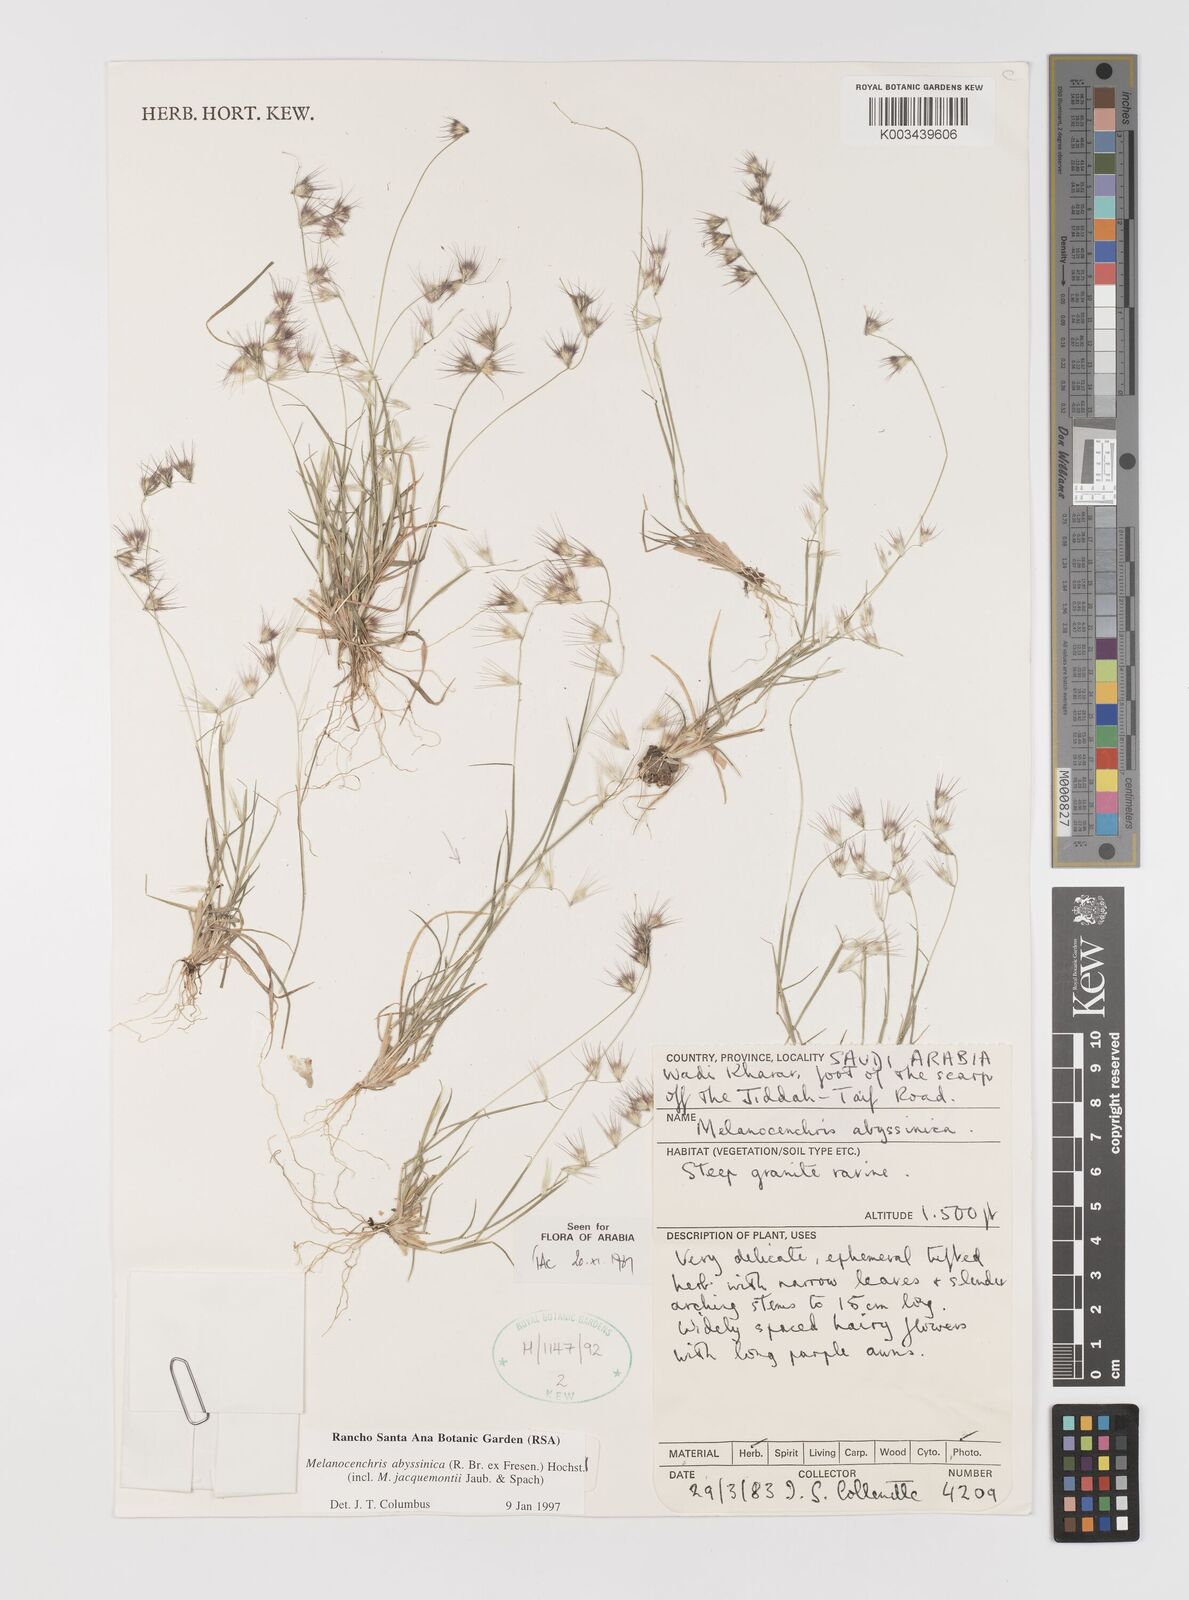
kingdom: Plantae
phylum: Tracheophyta
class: Liliopsida
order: Poales
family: Poaceae
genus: Melanocenchris
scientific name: Melanocenchris abyssinica
